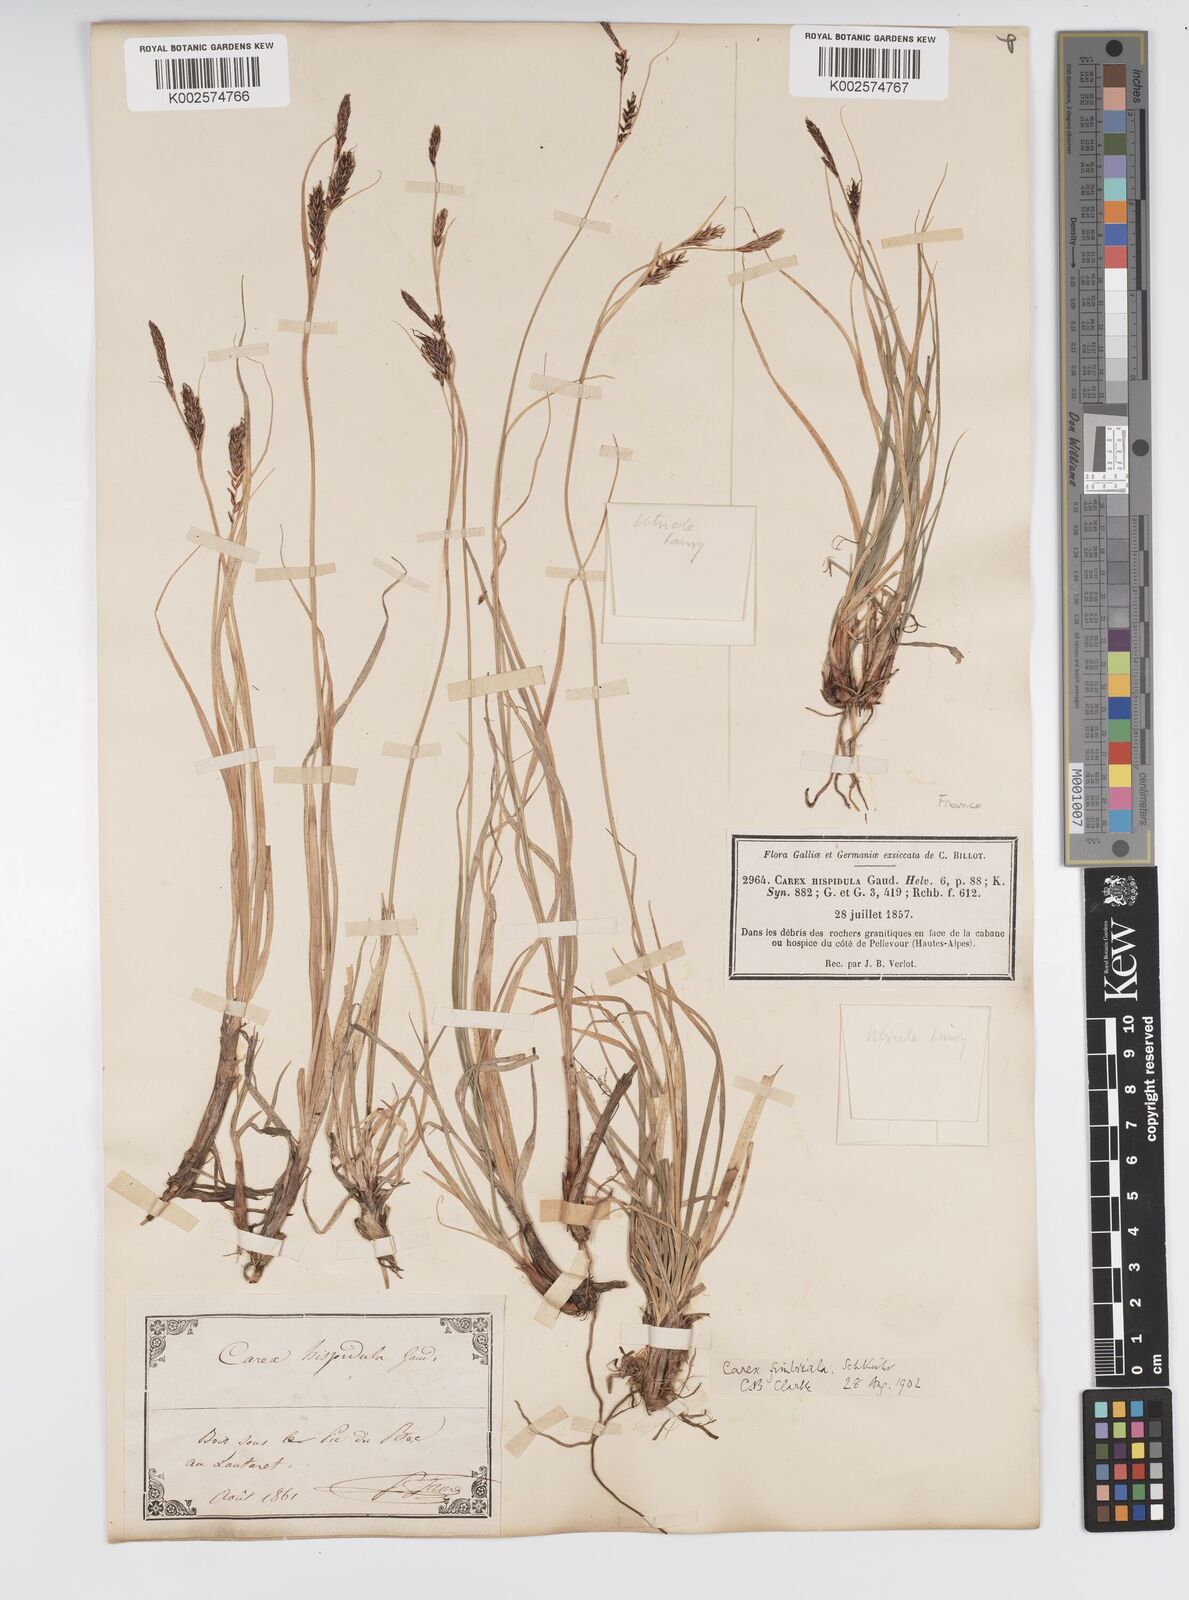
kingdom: Plantae
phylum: Tracheophyta
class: Liliopsida
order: Poales
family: Cyperaceae
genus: Carex
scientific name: Carex fimbriata
